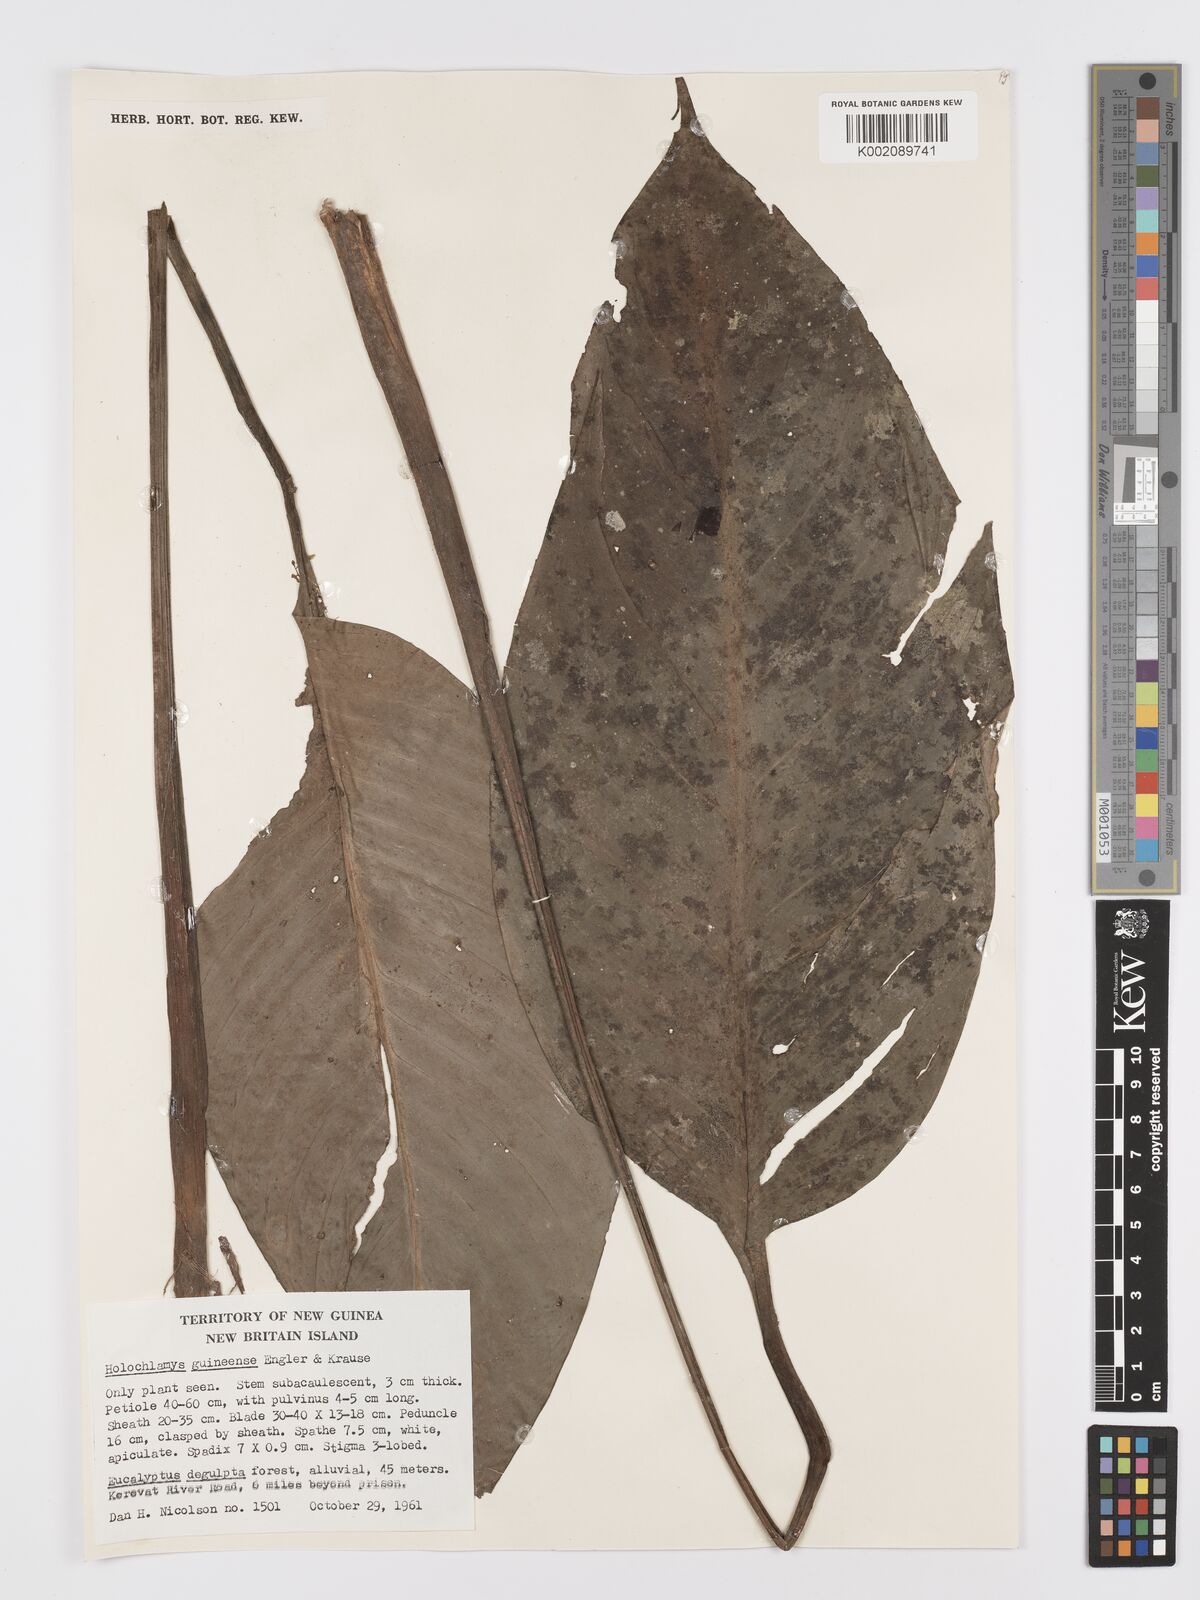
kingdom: Plantae
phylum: Tracheophyta
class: Liliopsida
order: Alismatales
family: Araceae
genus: Holochlamys
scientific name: Holochlamys beccarii
